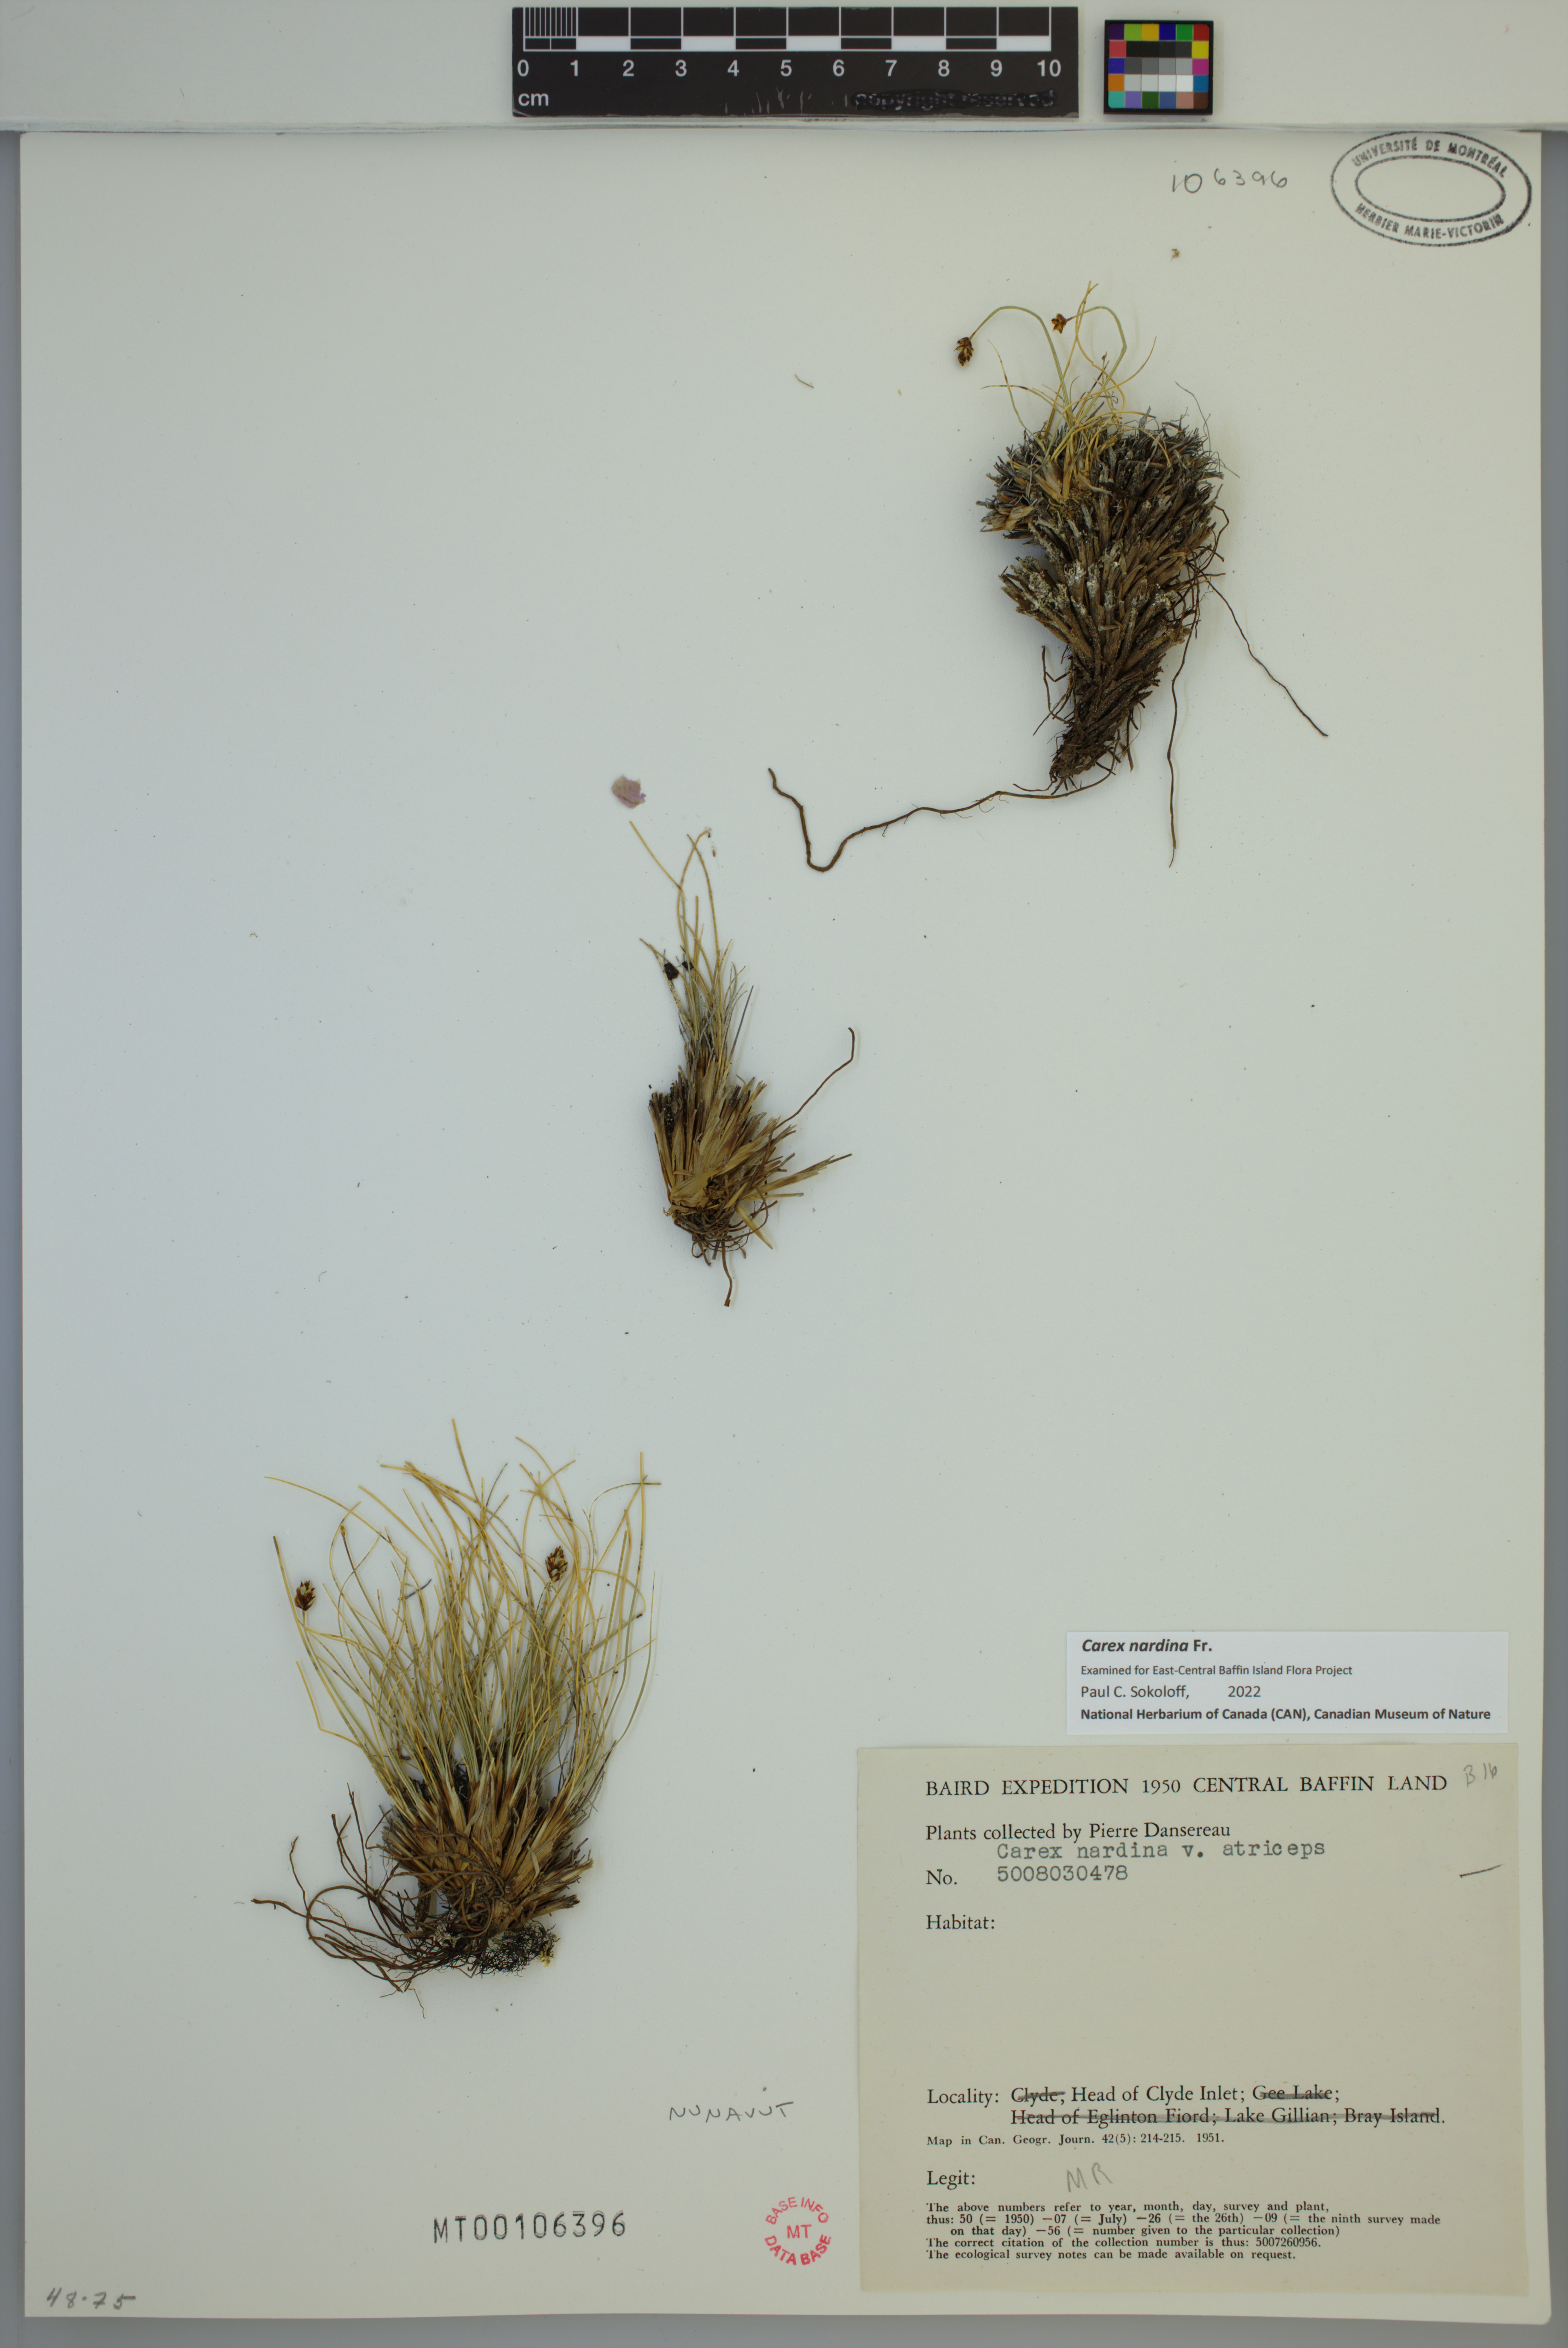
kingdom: Plantae
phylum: Tracheophyta
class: Liliopsida
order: Poales
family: Cyperaceae
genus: Carex
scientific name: Carex nardina
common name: Nard sedge
